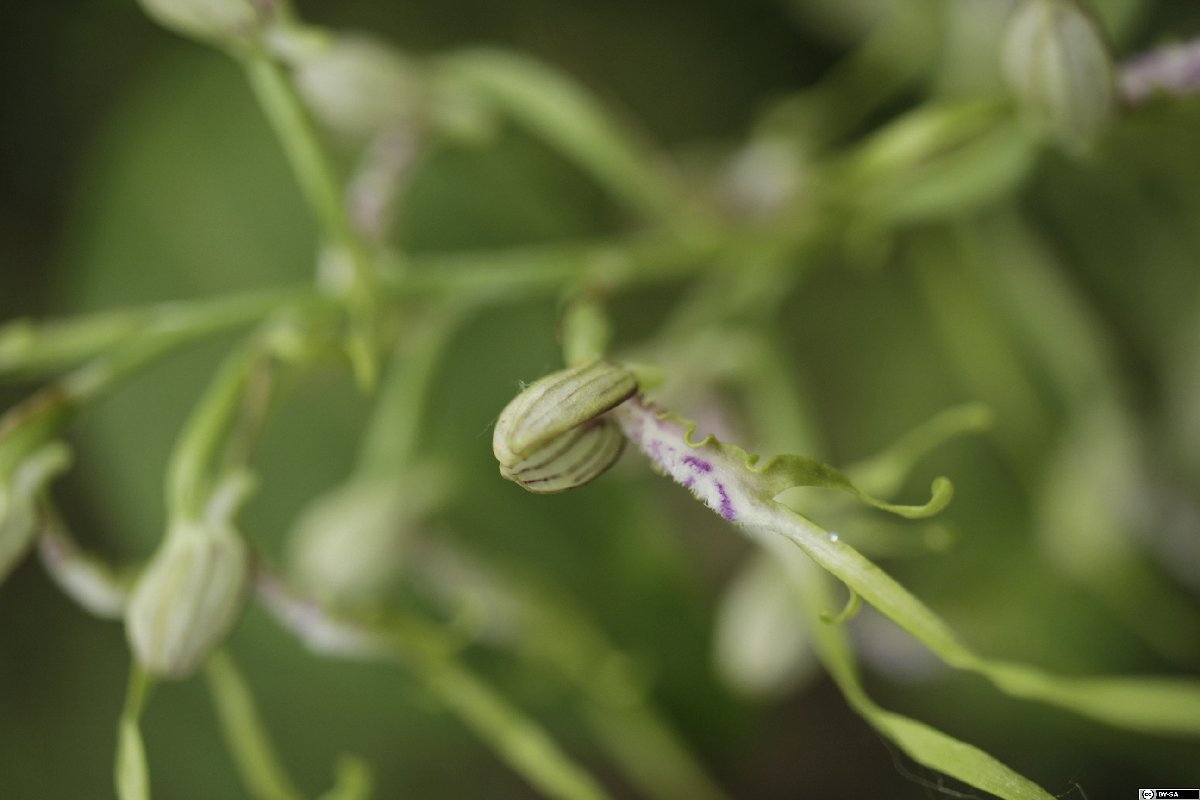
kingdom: Plantae
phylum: Tracheophyta
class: Liliopsida
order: Asparagales
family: Orchidaceae
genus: Himantoglossum
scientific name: Himantoglossum adriaticum
